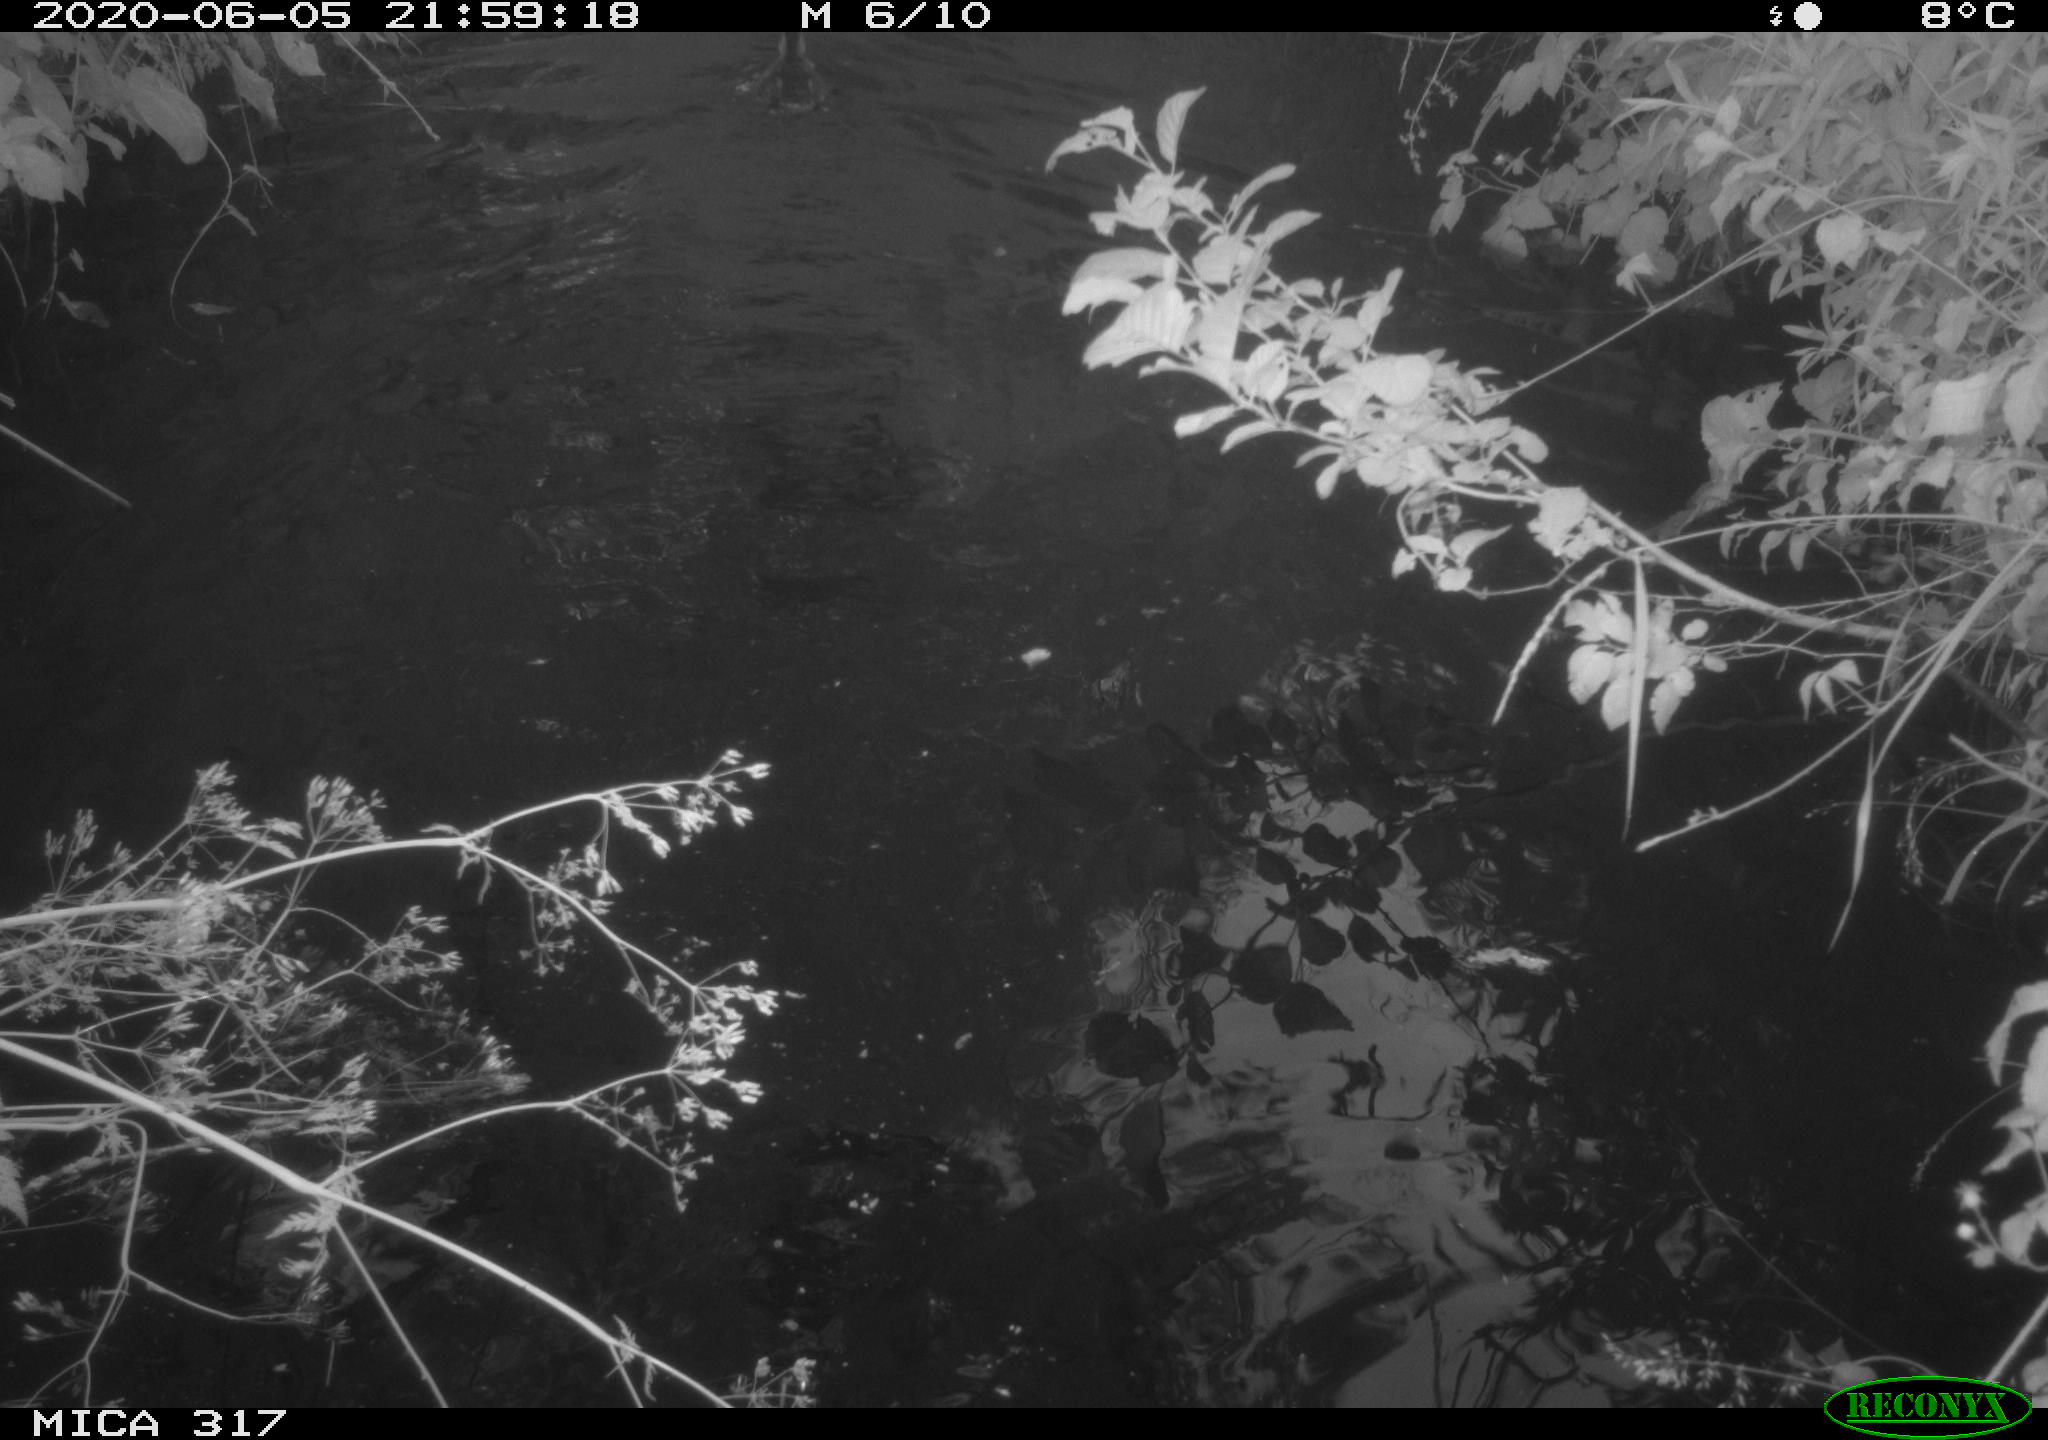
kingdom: Animalia
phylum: Chordata
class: Aves
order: Anseriformes
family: Anatidae
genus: Anas
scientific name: Anas platyrhynchos
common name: Mallard
